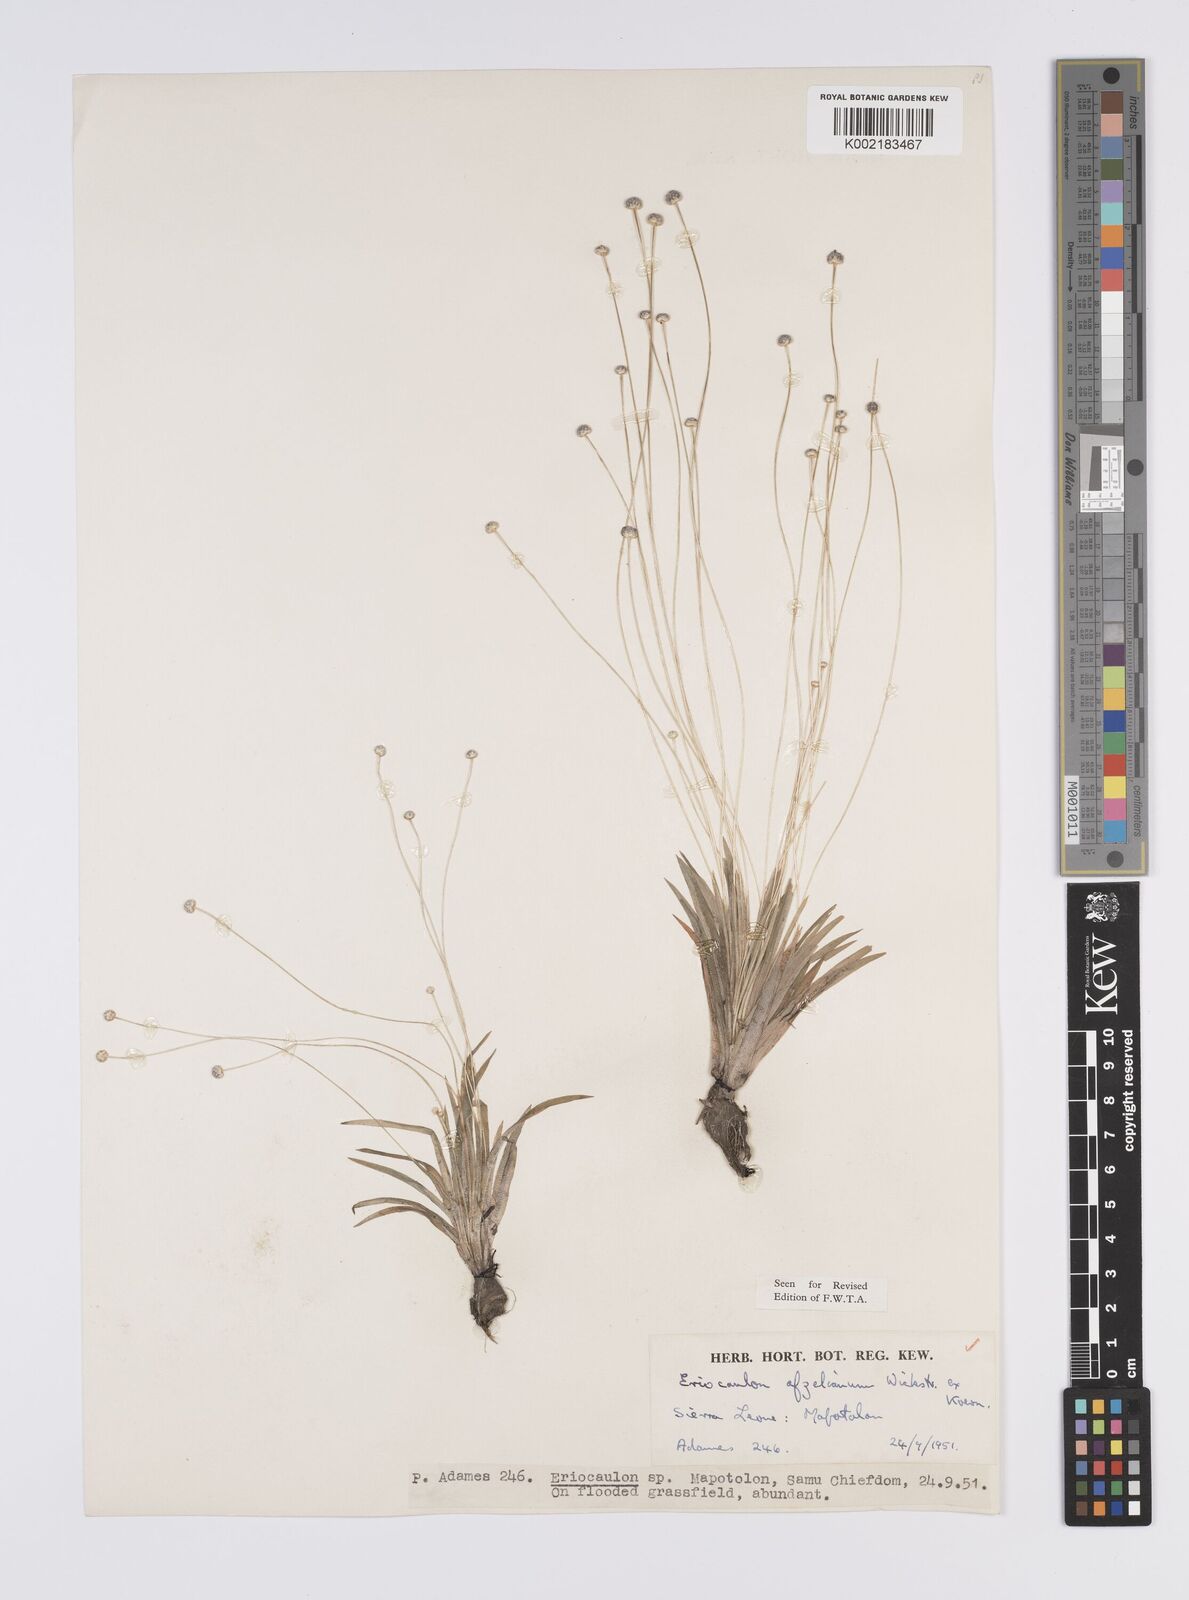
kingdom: Plantae
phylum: Tracheophyta
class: Liliopsida
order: Poales
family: Eriocaulaceae
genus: Eriocaulon
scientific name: Eriocaulon afzelianum
